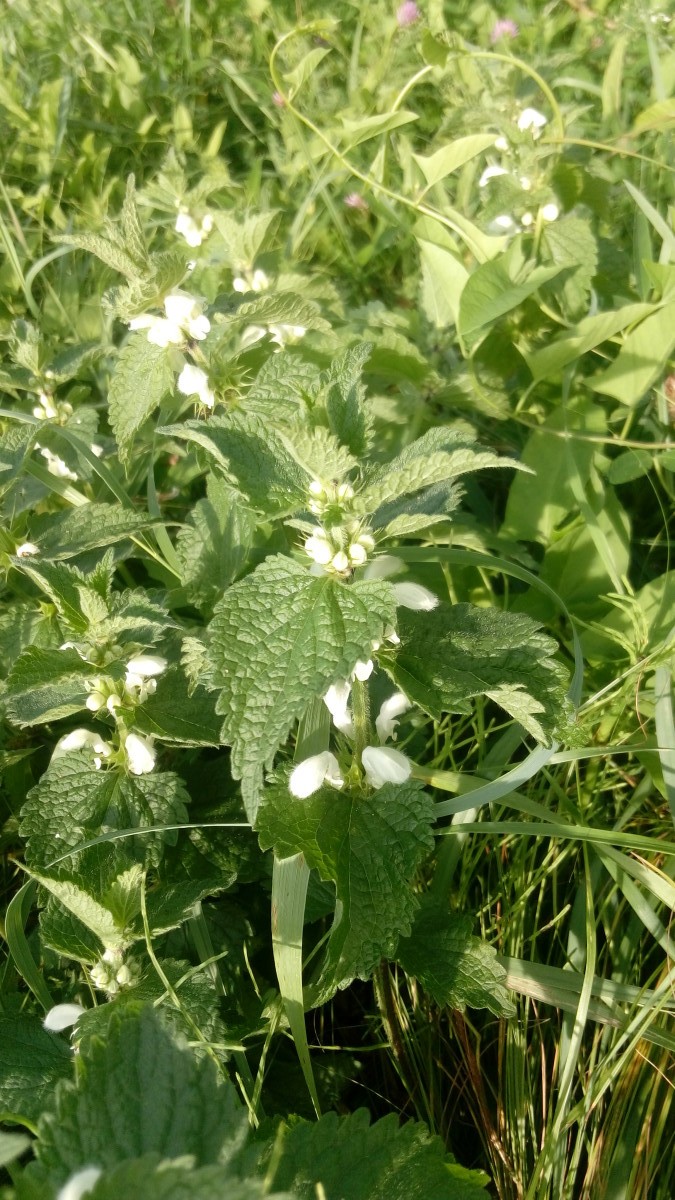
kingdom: Plantae
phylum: Tracheophyta
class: Magnoliopsida
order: Lamiales
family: Lamiaceae
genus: Lamium
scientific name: Lamium album
